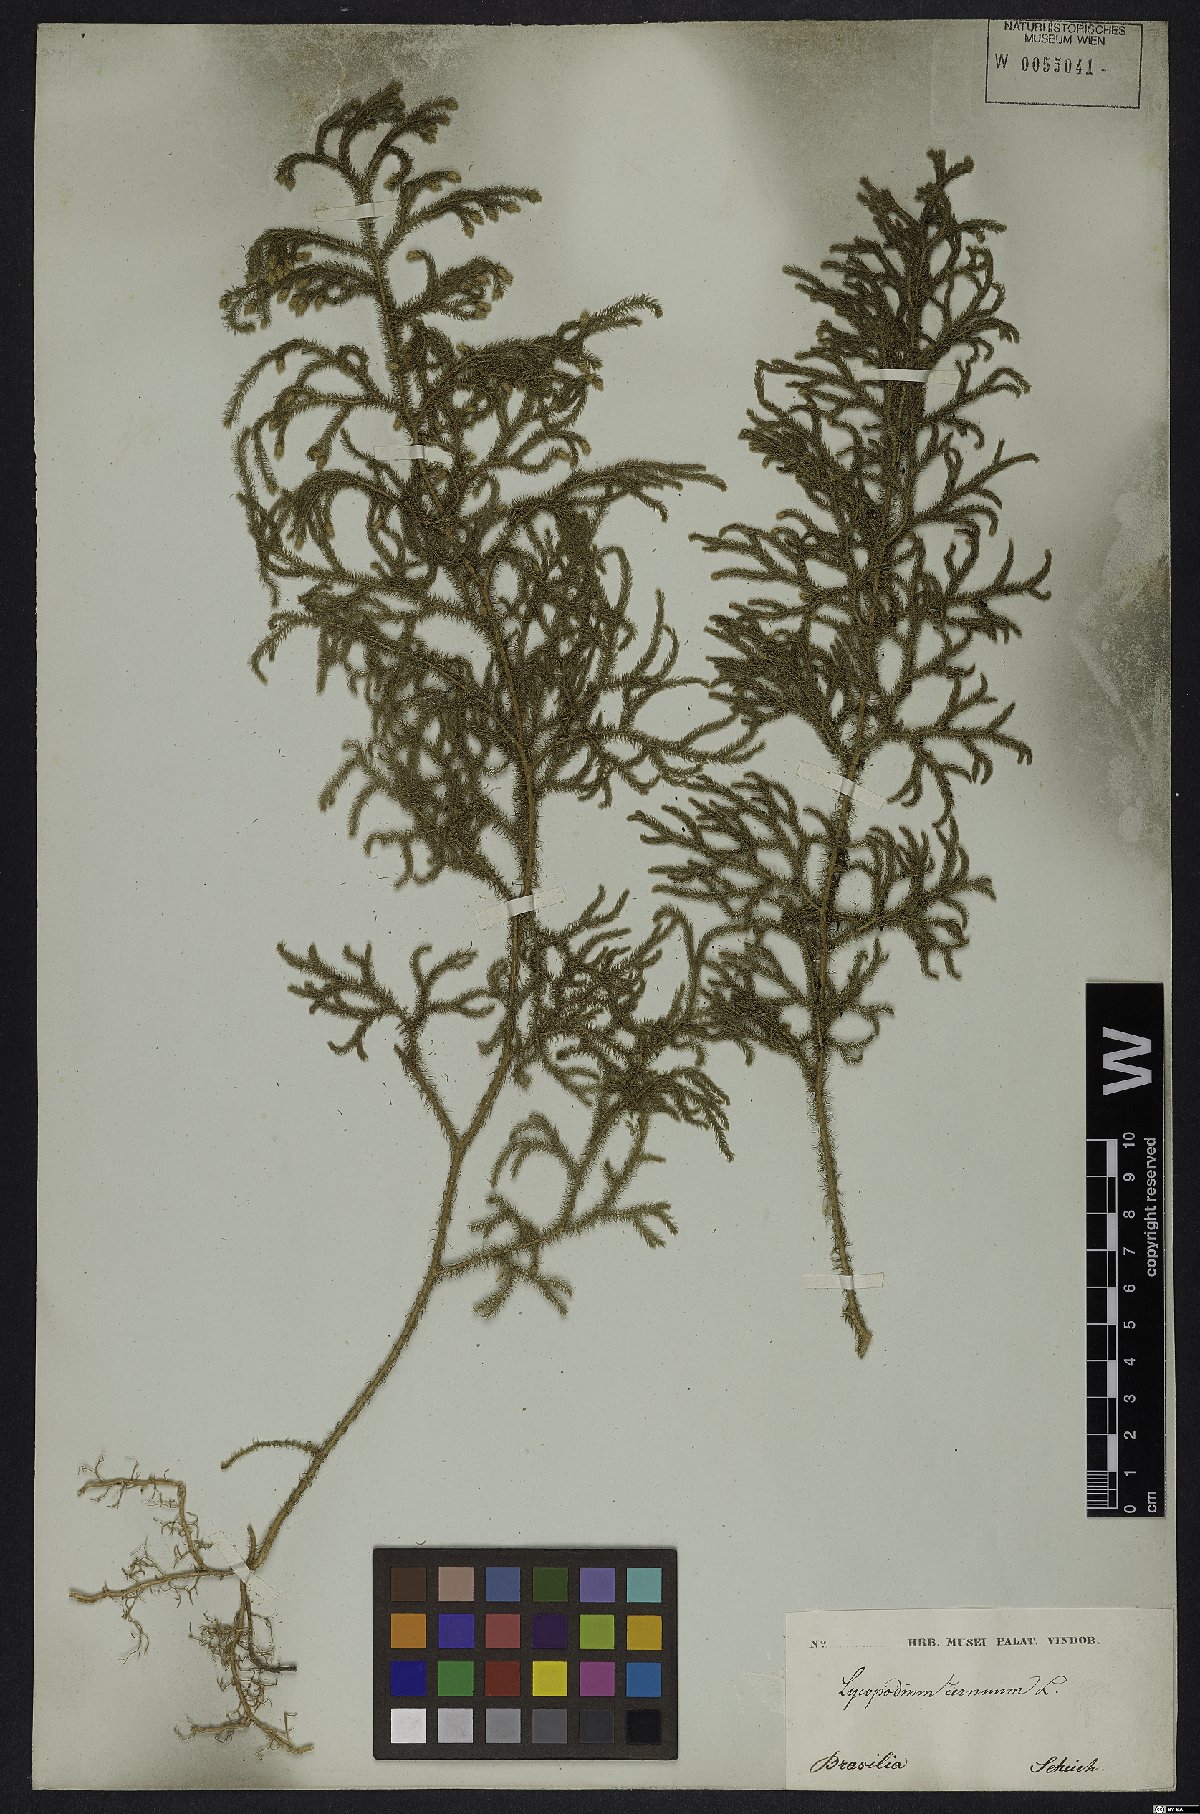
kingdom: Plantae
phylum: Tracheophyta
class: Lycopodiopsida
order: Lycopodiales
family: Lycopodiaceae
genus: Palhinhaea
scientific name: Palhinhaea cernua
